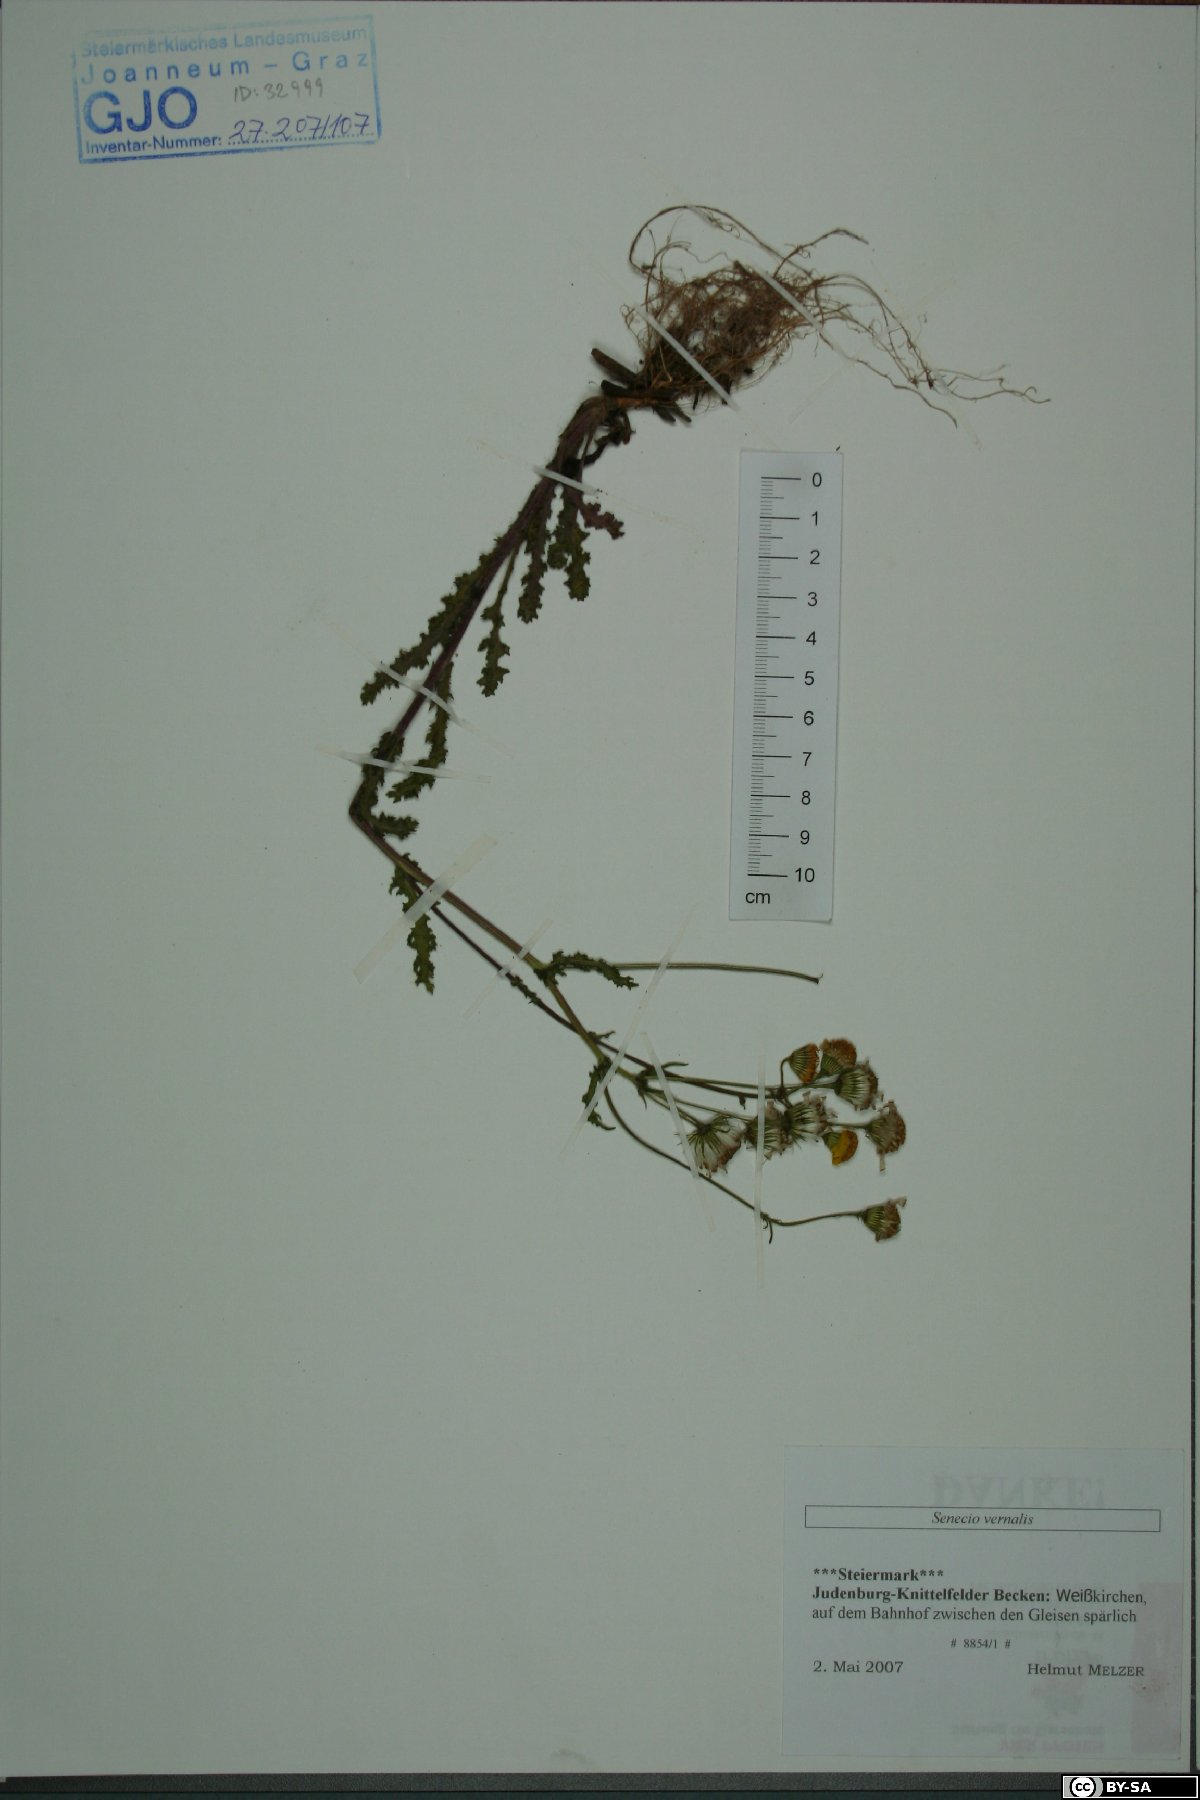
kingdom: Plantae
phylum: Tracheophyta
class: Magnoliopsida
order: Asterales
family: Asteraceae
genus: Senecio
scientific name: Senecio vernalis
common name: Eastern groundsel
